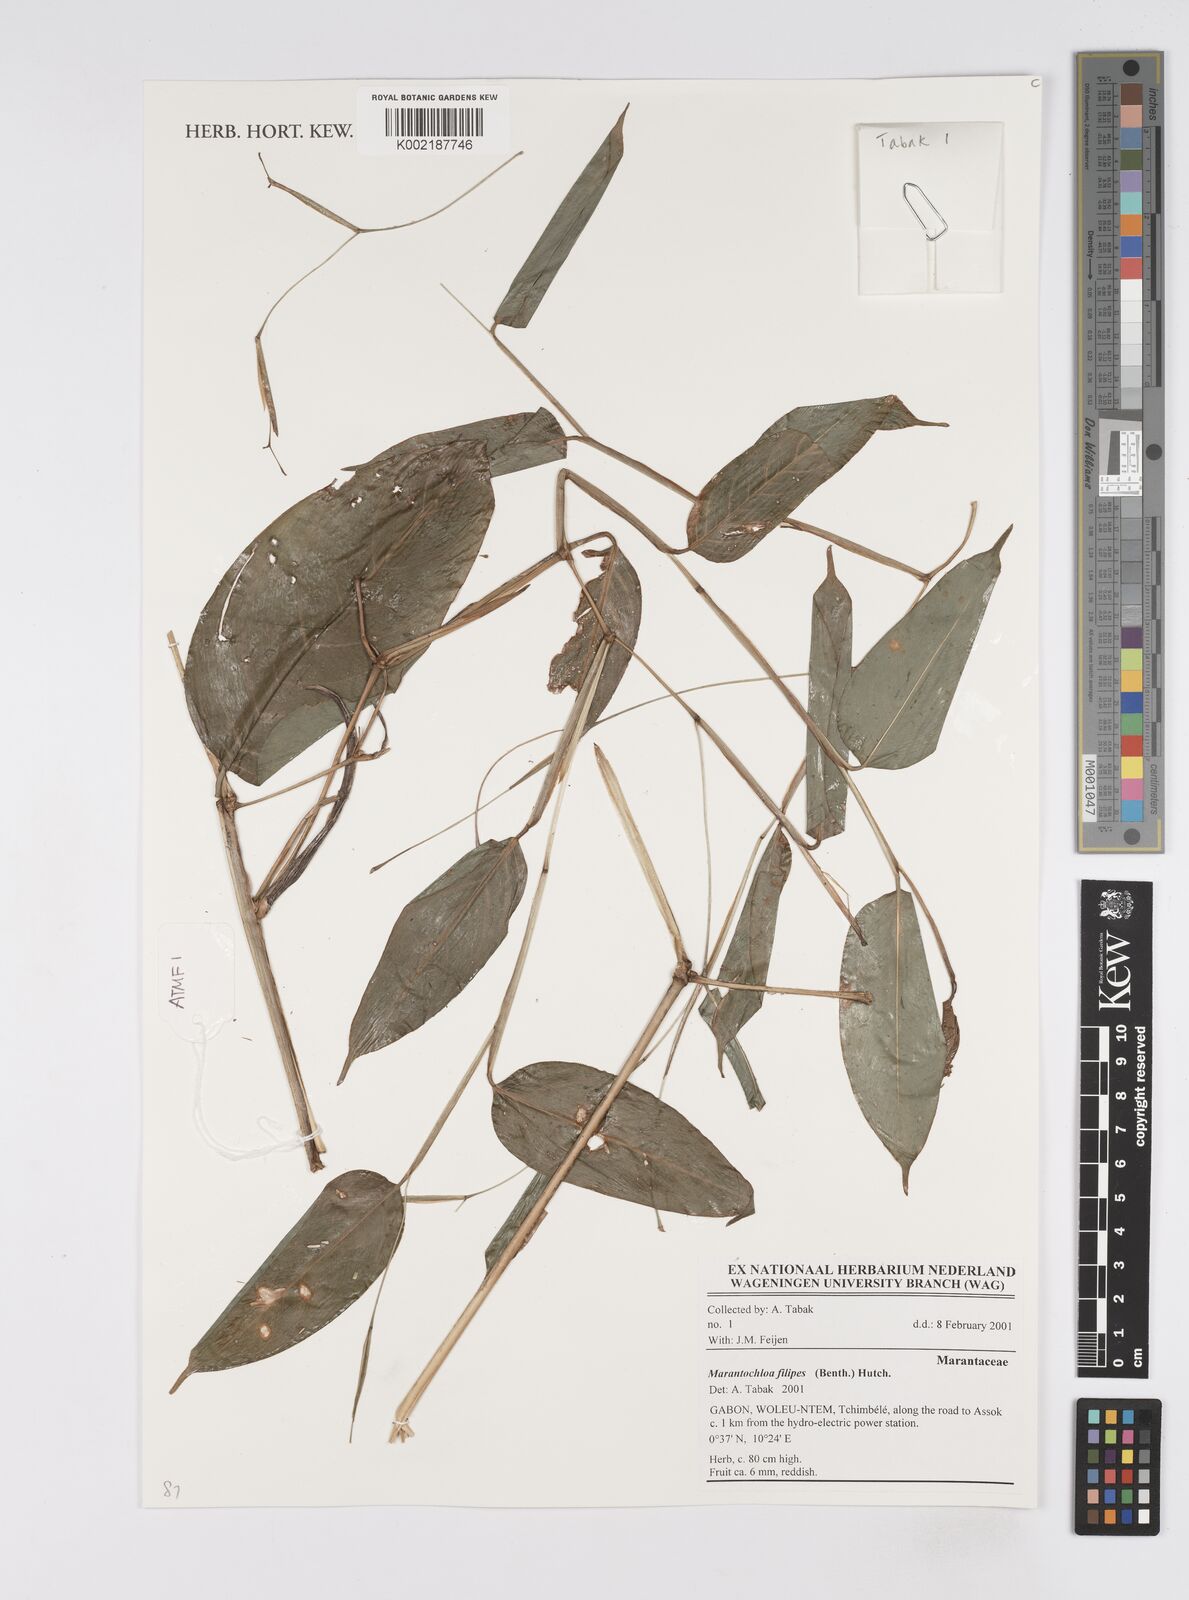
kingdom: Plantae
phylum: Tracheophyta
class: Liliopsida
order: Zingiberales
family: Marantaceae
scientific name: Marantaceae
